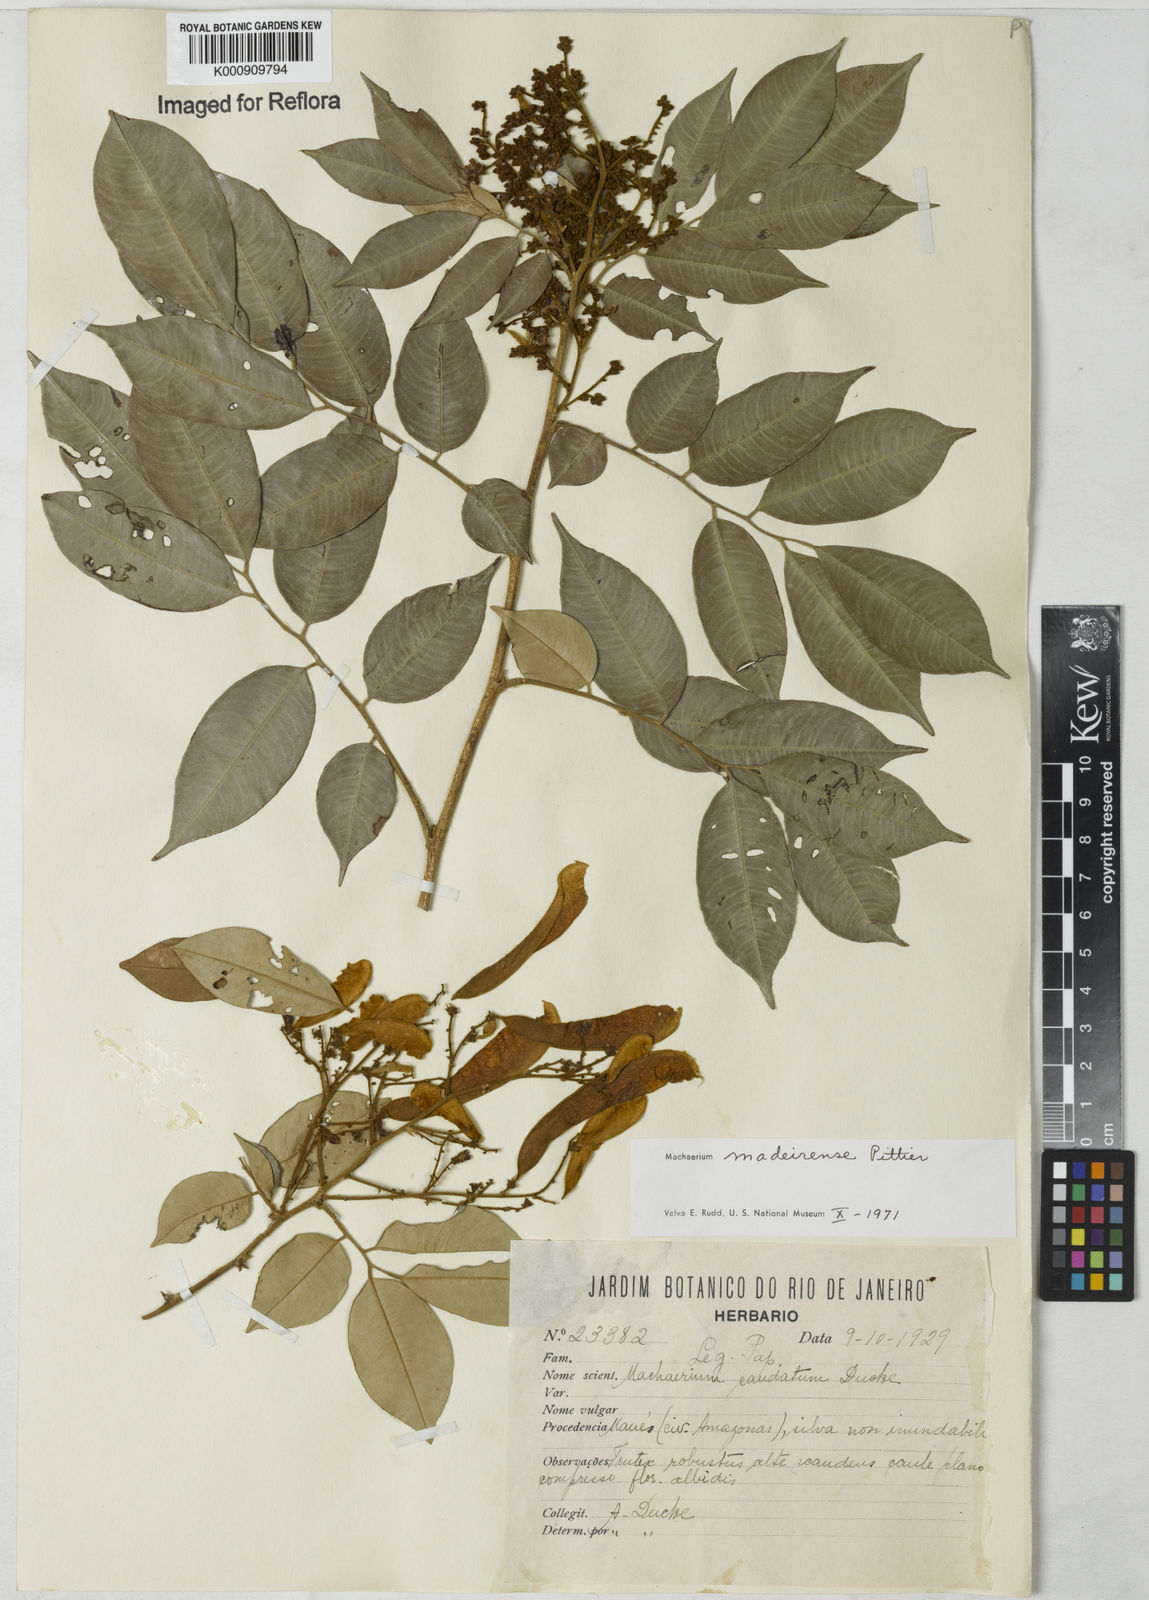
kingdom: Plantae
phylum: Tracheophyta
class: Magnoliopsida
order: Fabales
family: Fabaceae
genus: Machaerium
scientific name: Machaerium madeirense
